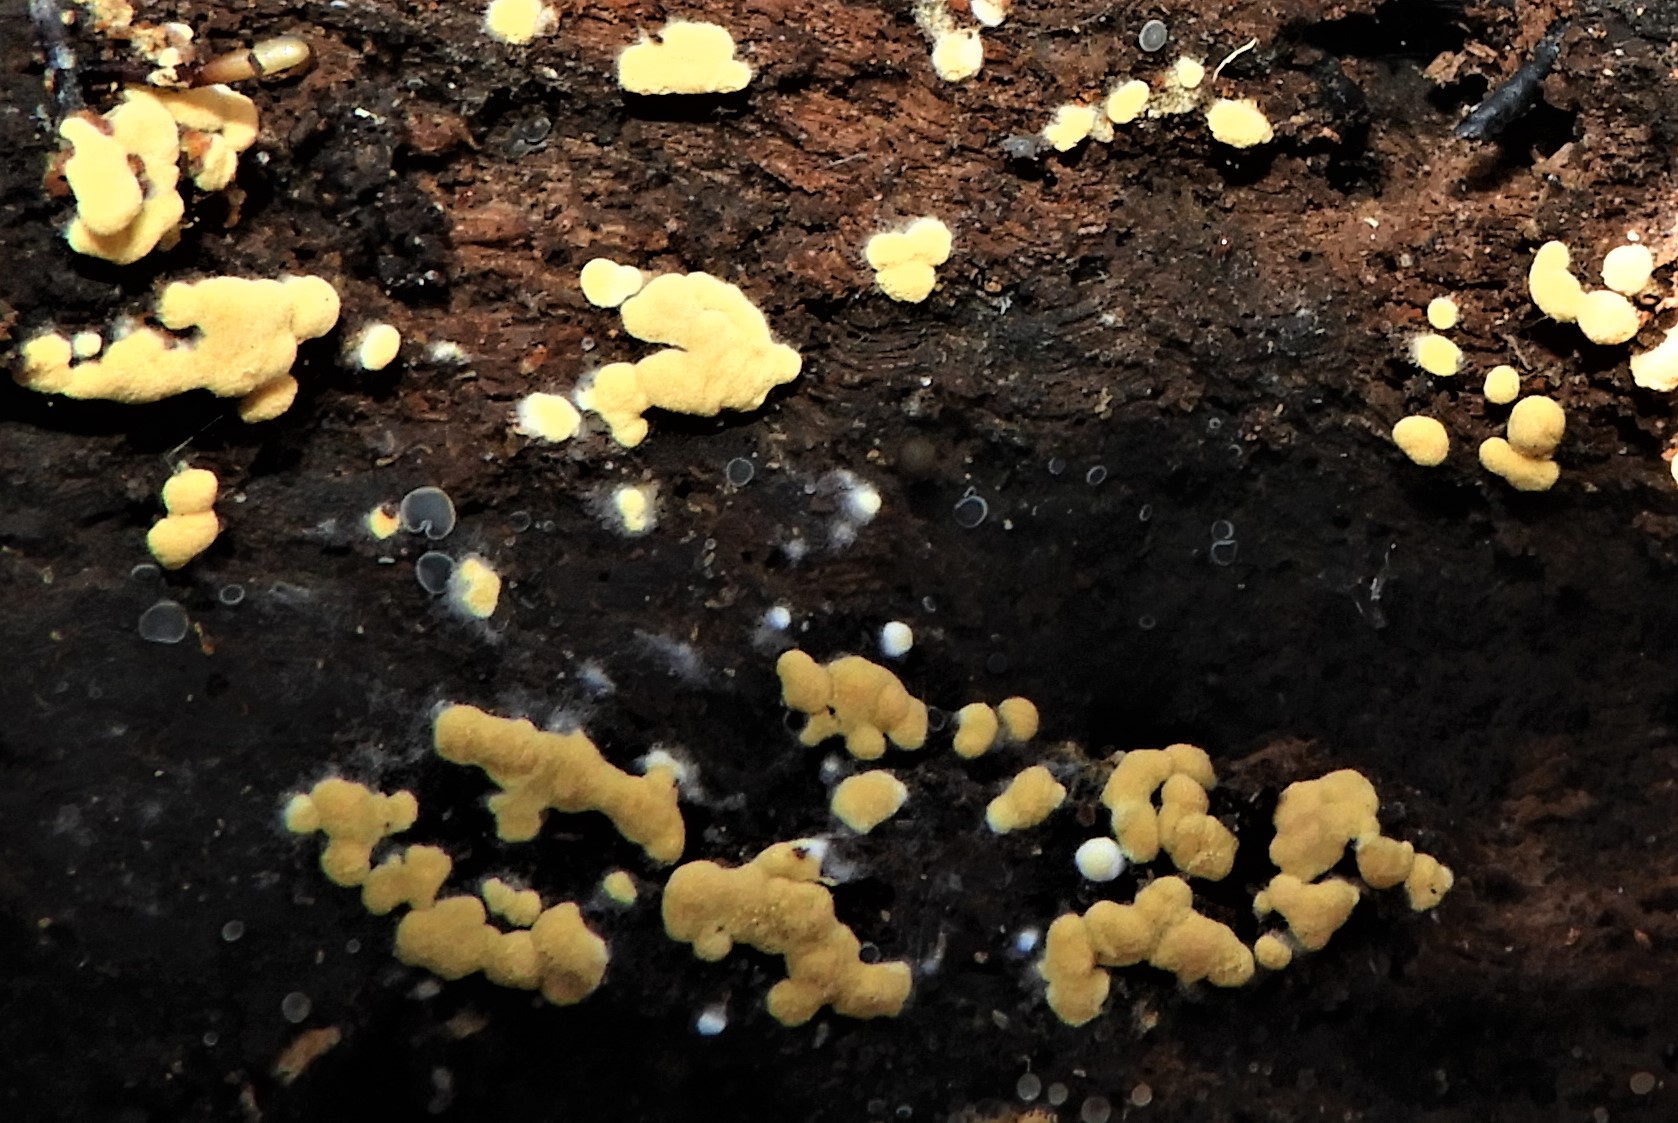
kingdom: Fungi
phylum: Basidiomycota
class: Agaricomycetes
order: Cantharellales
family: Botryobasidiaceae
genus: Botryobasidium
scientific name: Botryobasidium aureum
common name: gylden spindhinde
